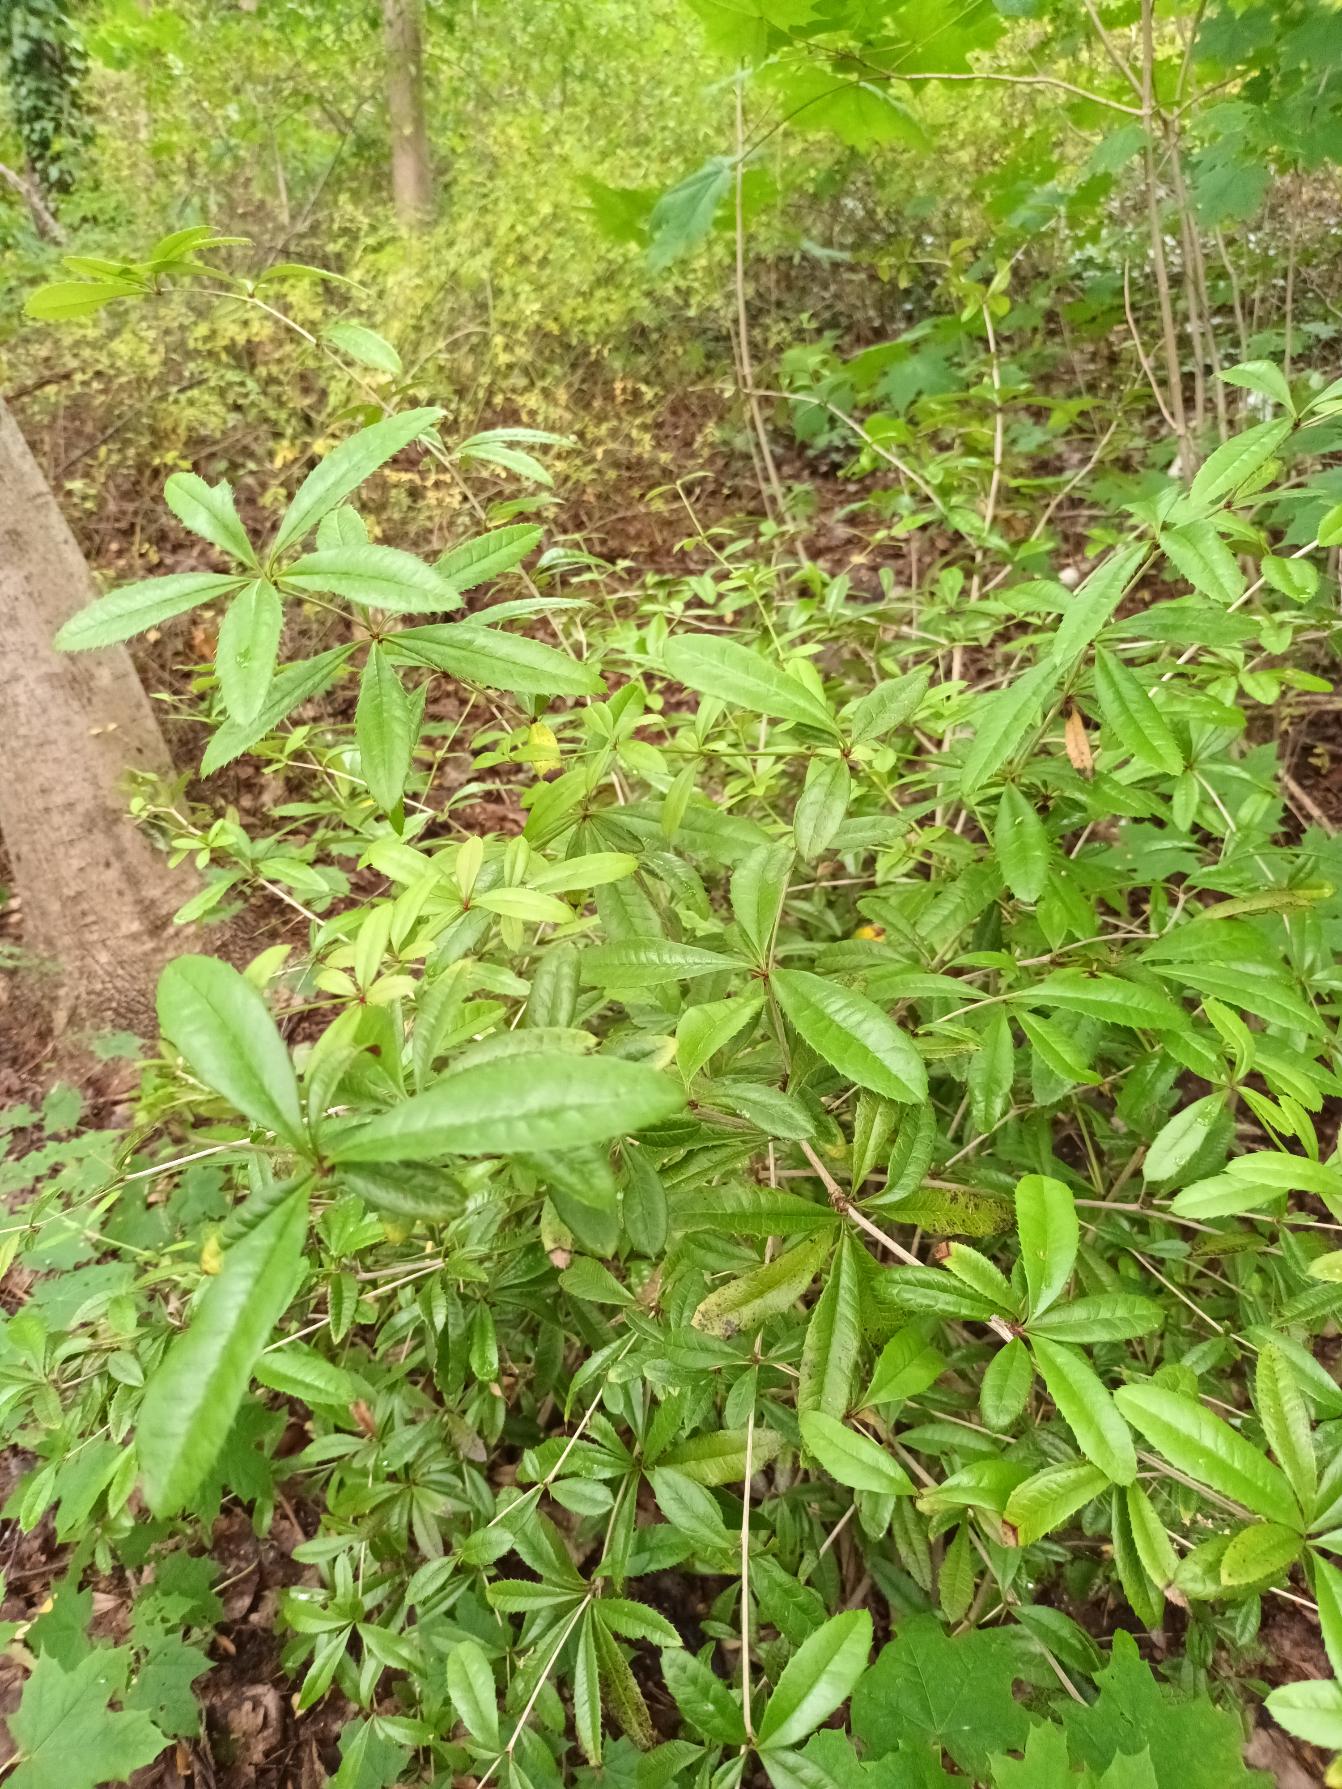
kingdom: Plantae
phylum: Tracheophyta
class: Magnoliopsida
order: Ranunculales
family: Berberidaceae
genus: Berberis
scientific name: Berberis julianae
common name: Julianes berberis
